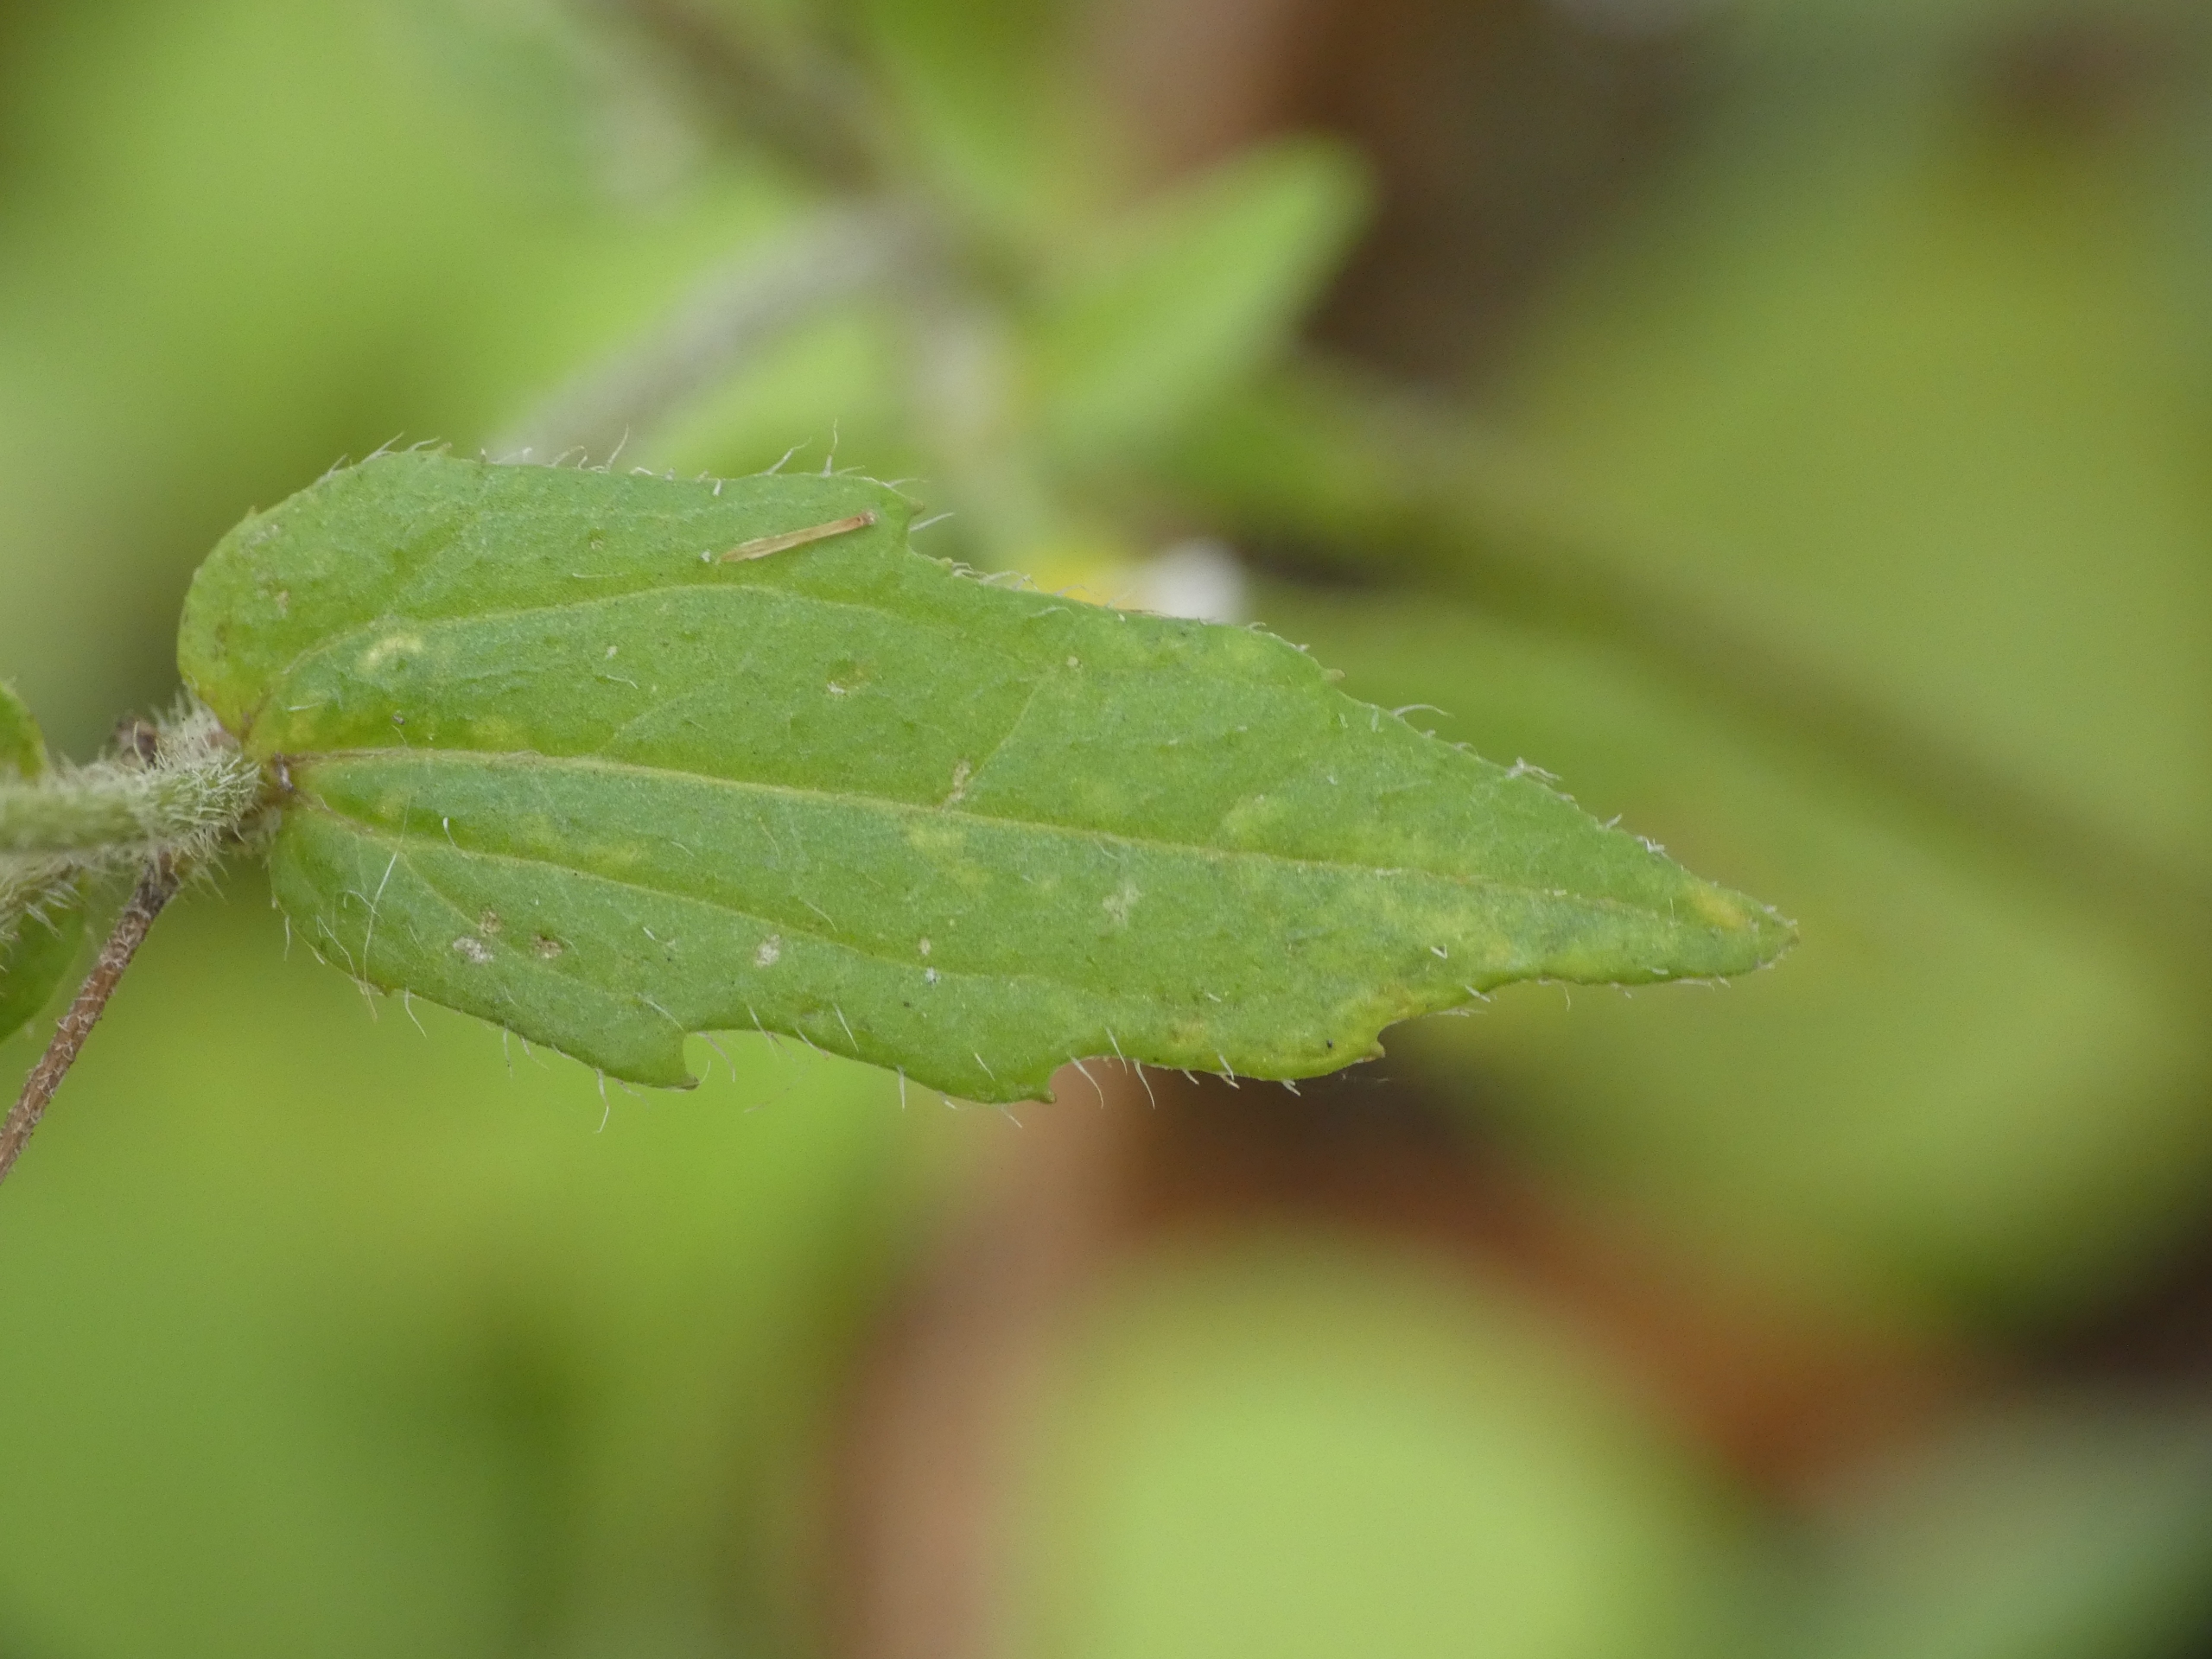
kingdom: Plantae
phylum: Tracheophyta
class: Magnoliopsida
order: Asterales
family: Asteraceae
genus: Galinsoga
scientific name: Galinsoga quadriradiata
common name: Kirtel-kortstråle
